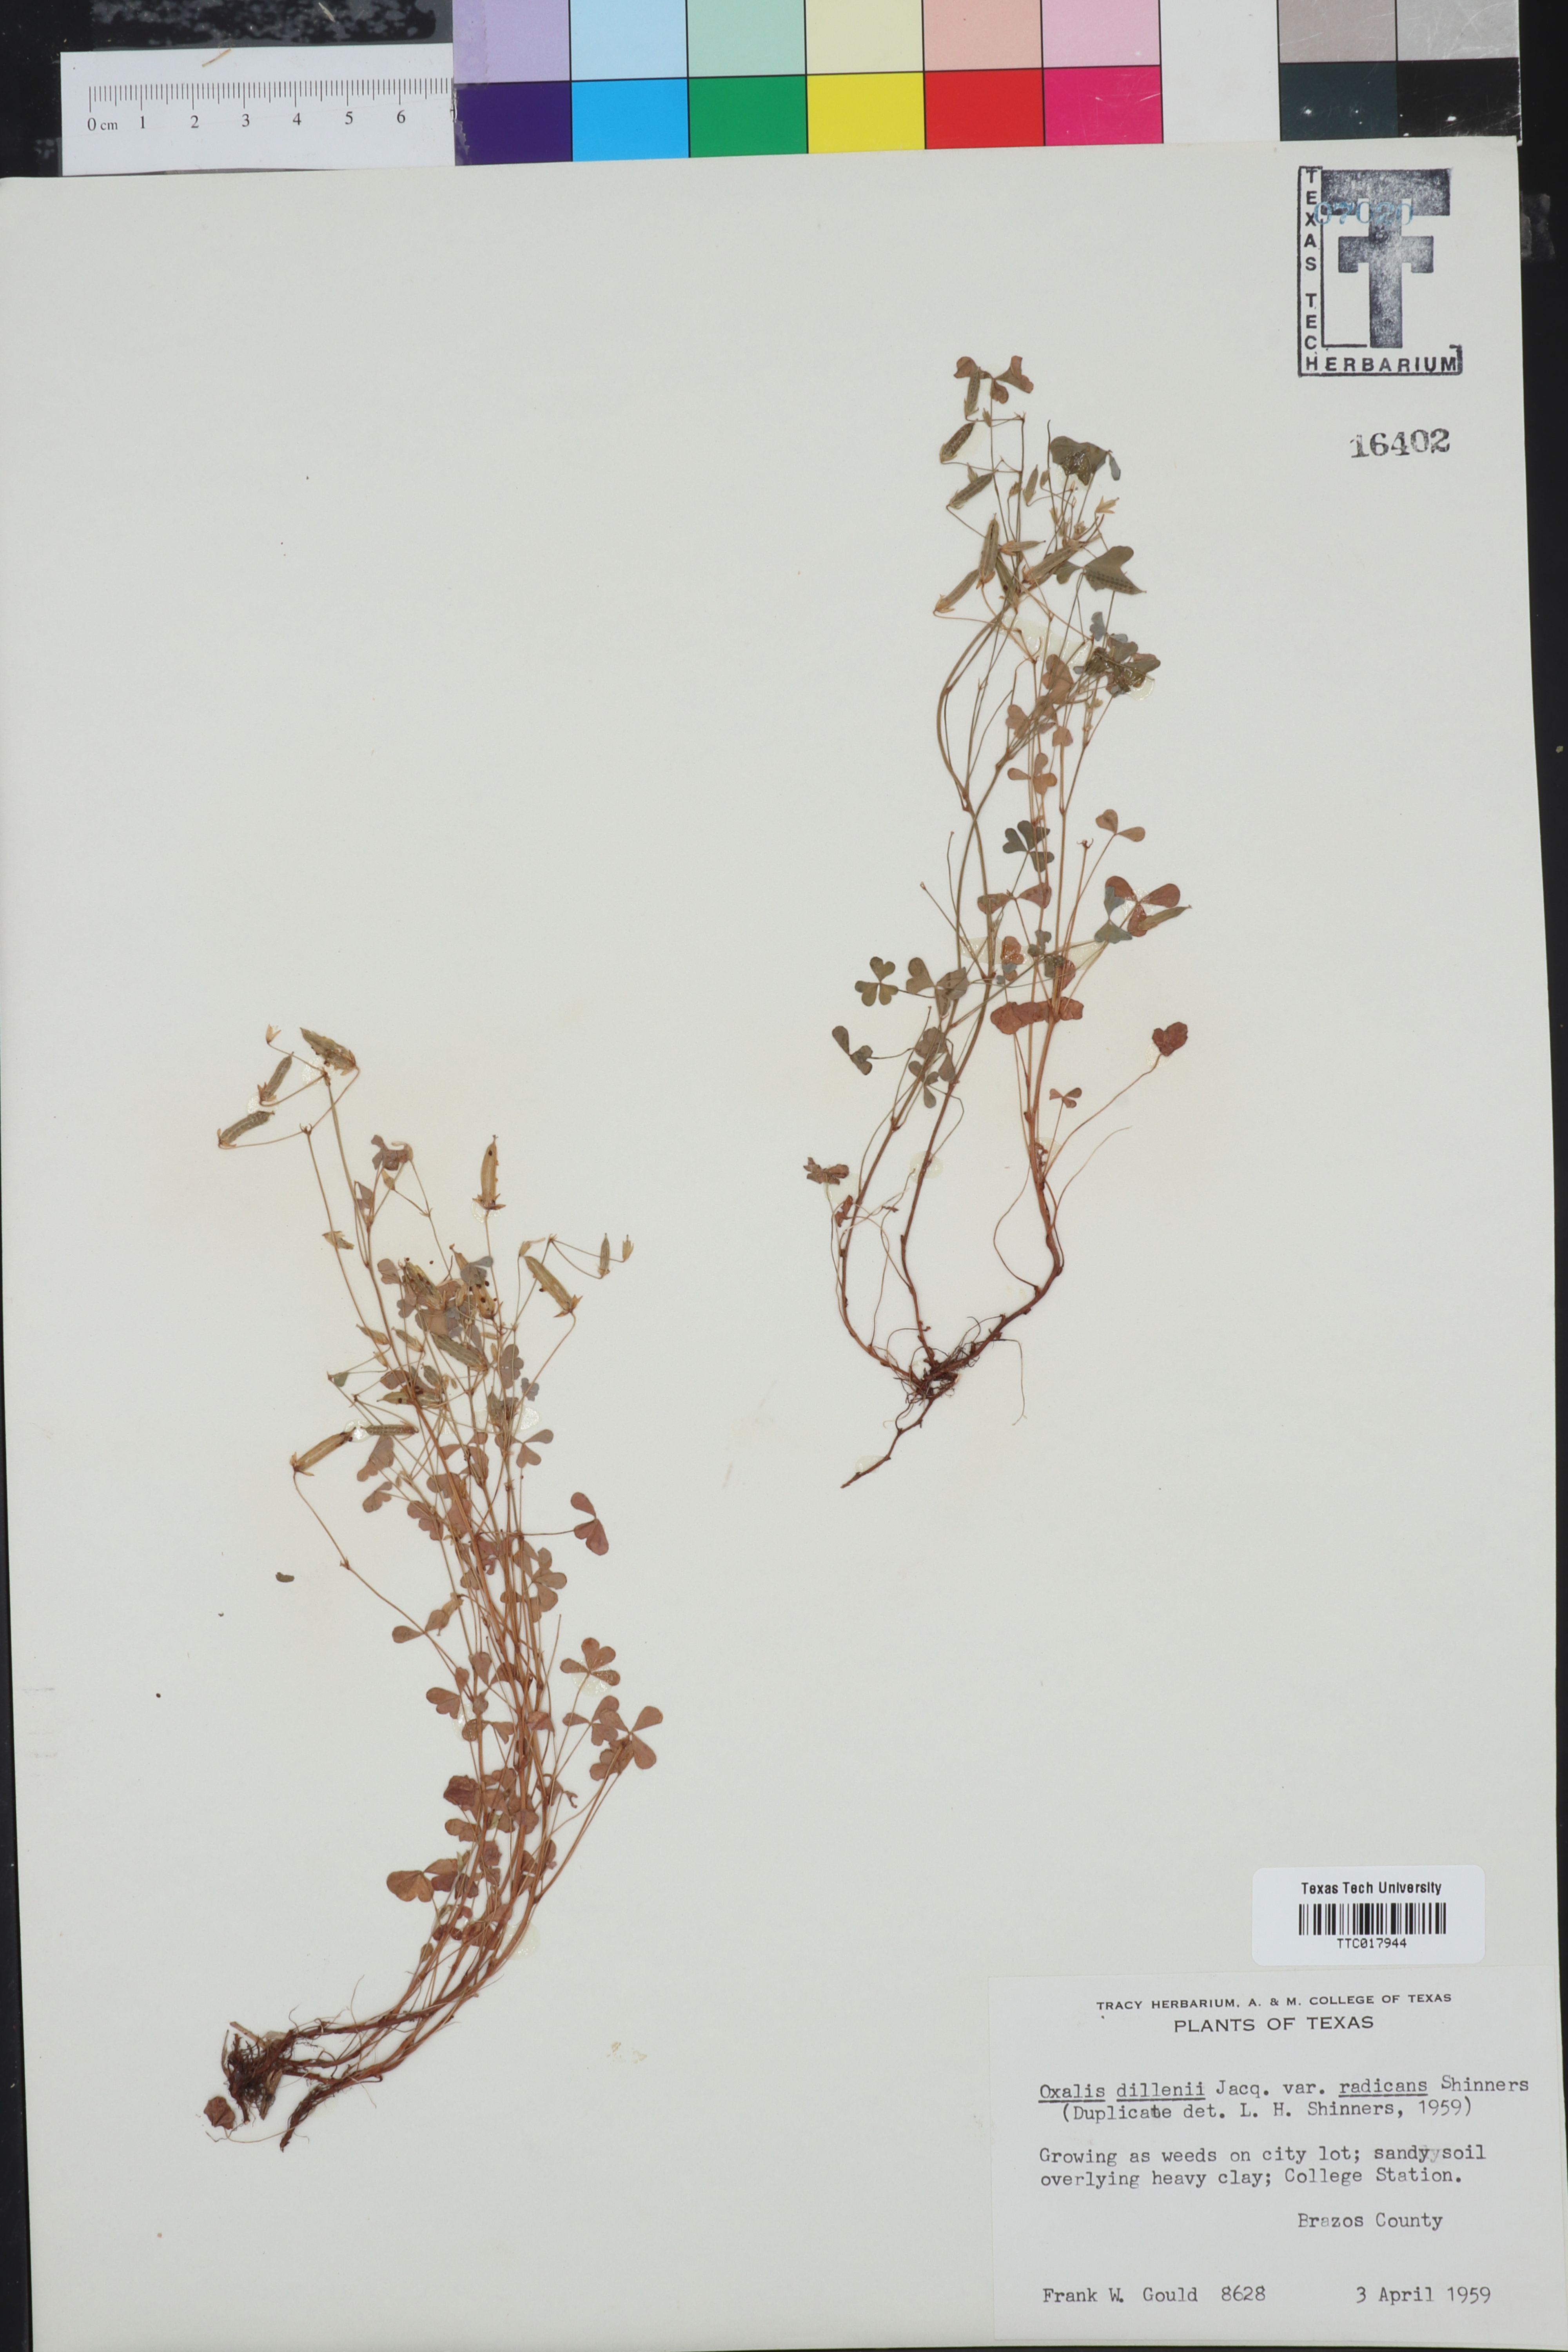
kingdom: Plantae
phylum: Tracheophyta
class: Magnoliopsida
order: Oxalidales
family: Oxalidaceae
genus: Oxalis
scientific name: Oxalis dillenii
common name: Sussex yellow-sorrel
